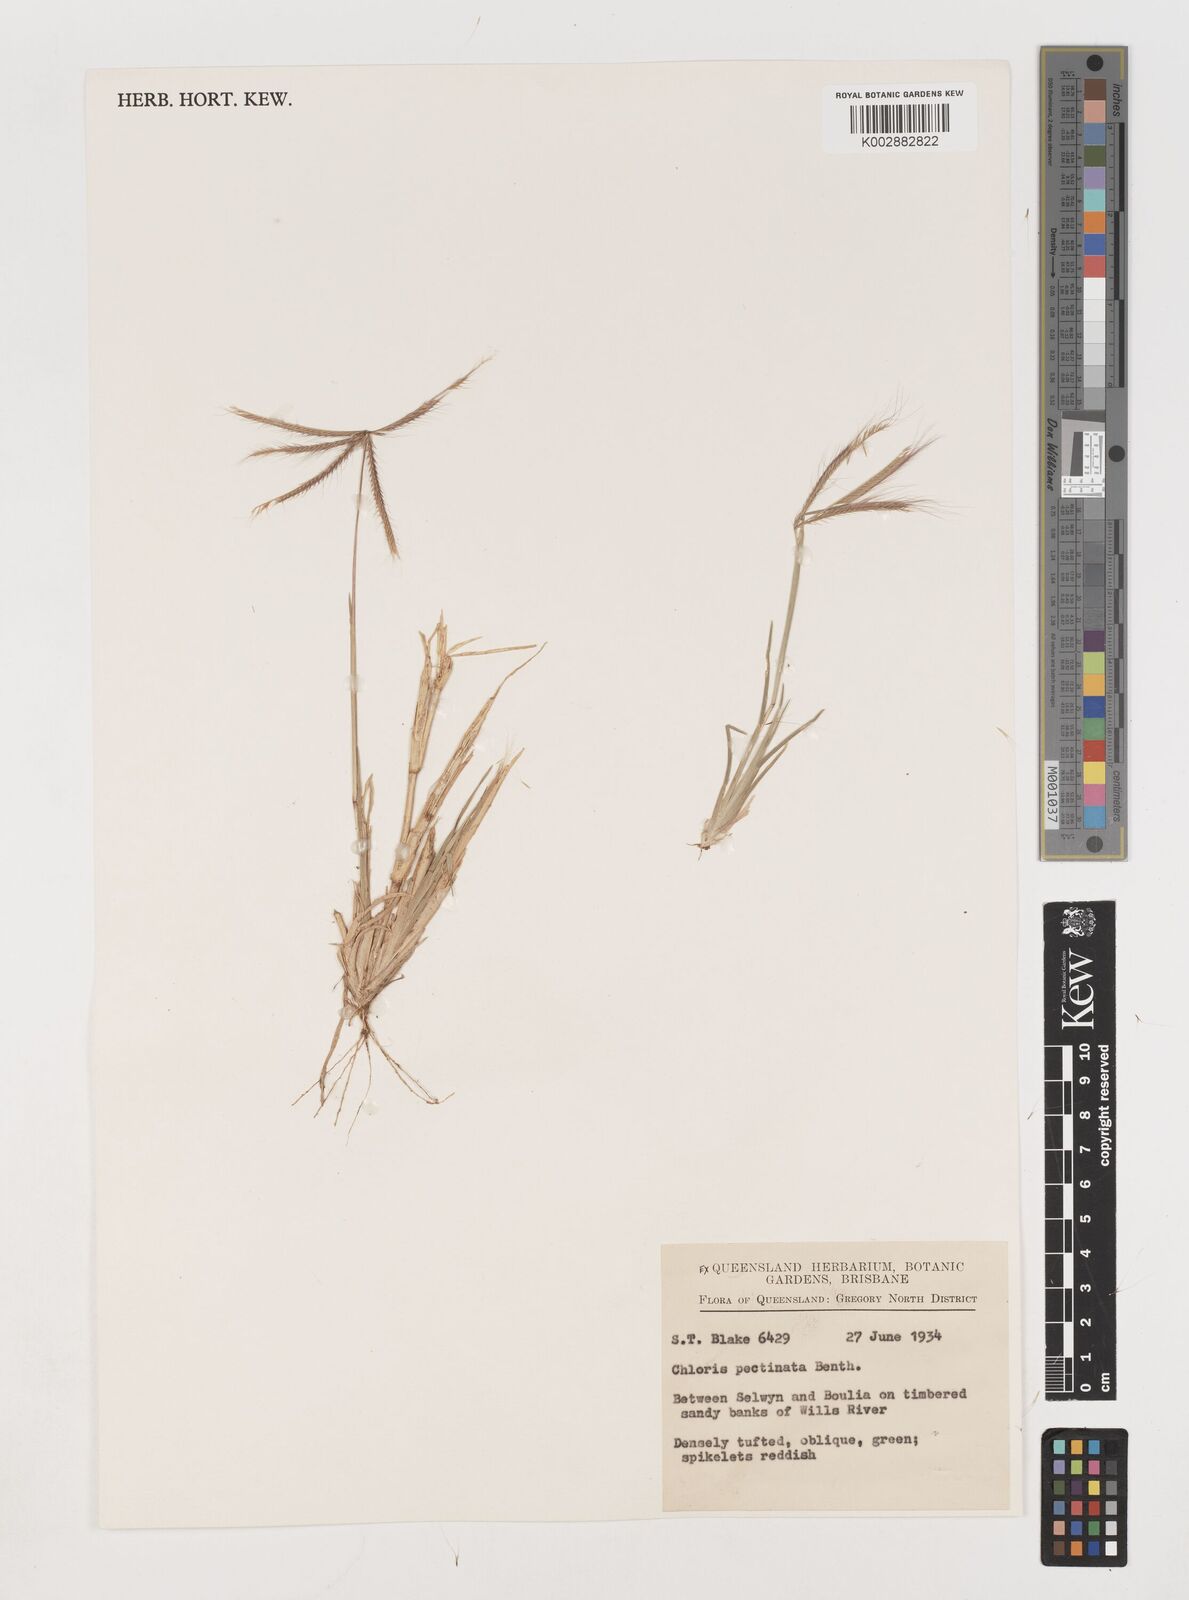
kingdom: Plantae
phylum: Tracheophyta
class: Liliopsida
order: Poales
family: Poaceae
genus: Chloris
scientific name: Chloris pectinata
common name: Comb windmill grass
